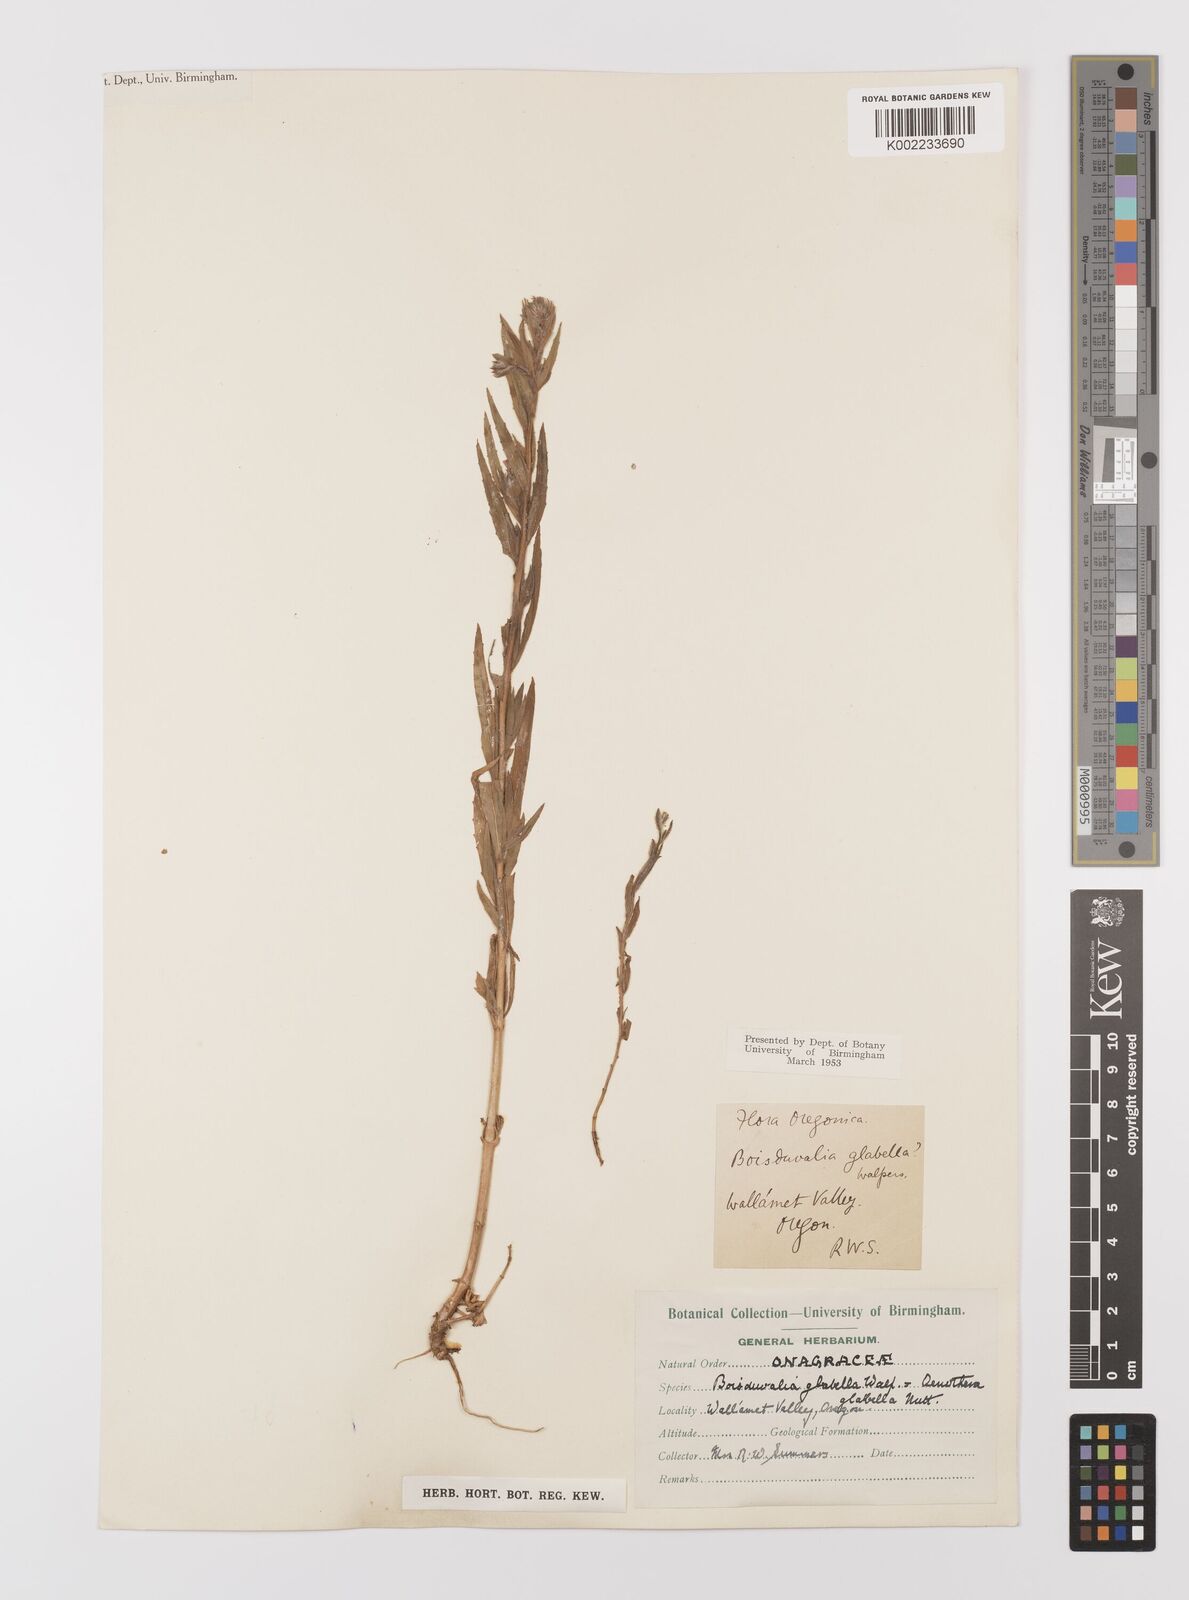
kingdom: Plantae
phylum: Tracheophyta
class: Magnoliopsida
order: Myrtales
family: Onagraceae
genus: Epilobium
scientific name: Epilobium campestre
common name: Smooth spike-primrose
